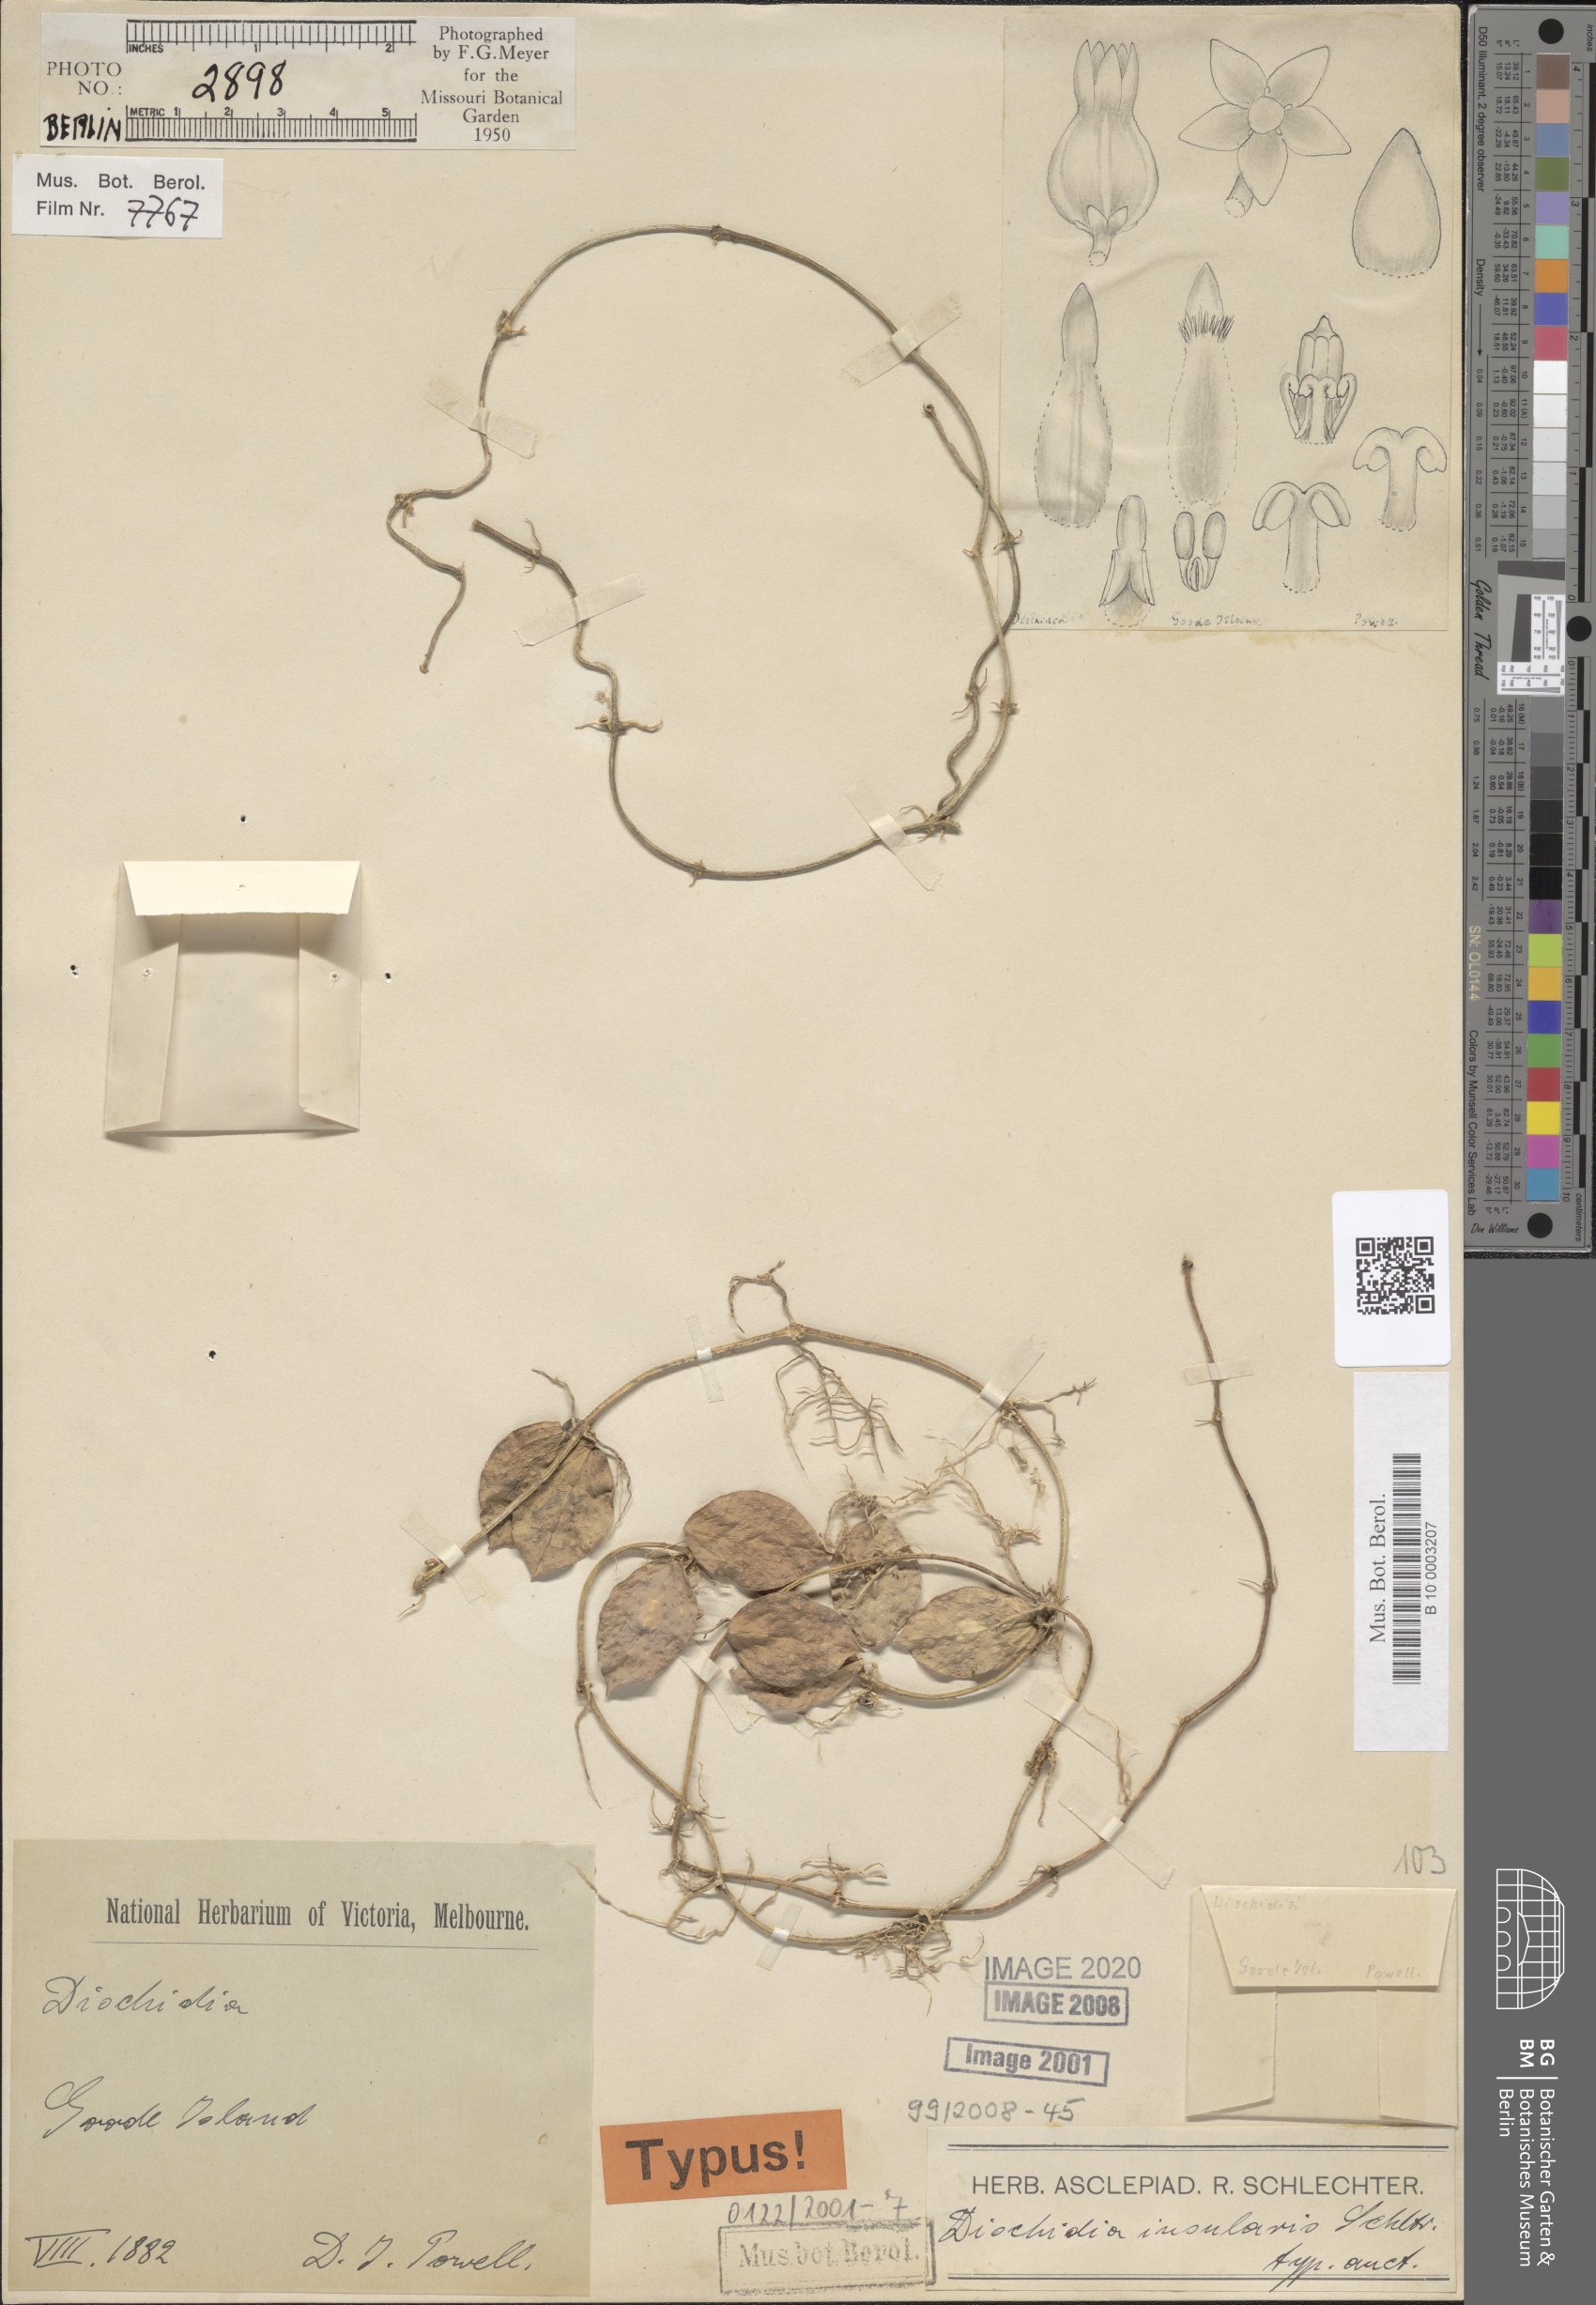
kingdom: Plantae
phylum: Tracheophyta
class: Magnoliopsida
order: Gentianales
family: Apocynaceae
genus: Dischidia
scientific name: Dischidia insularis
